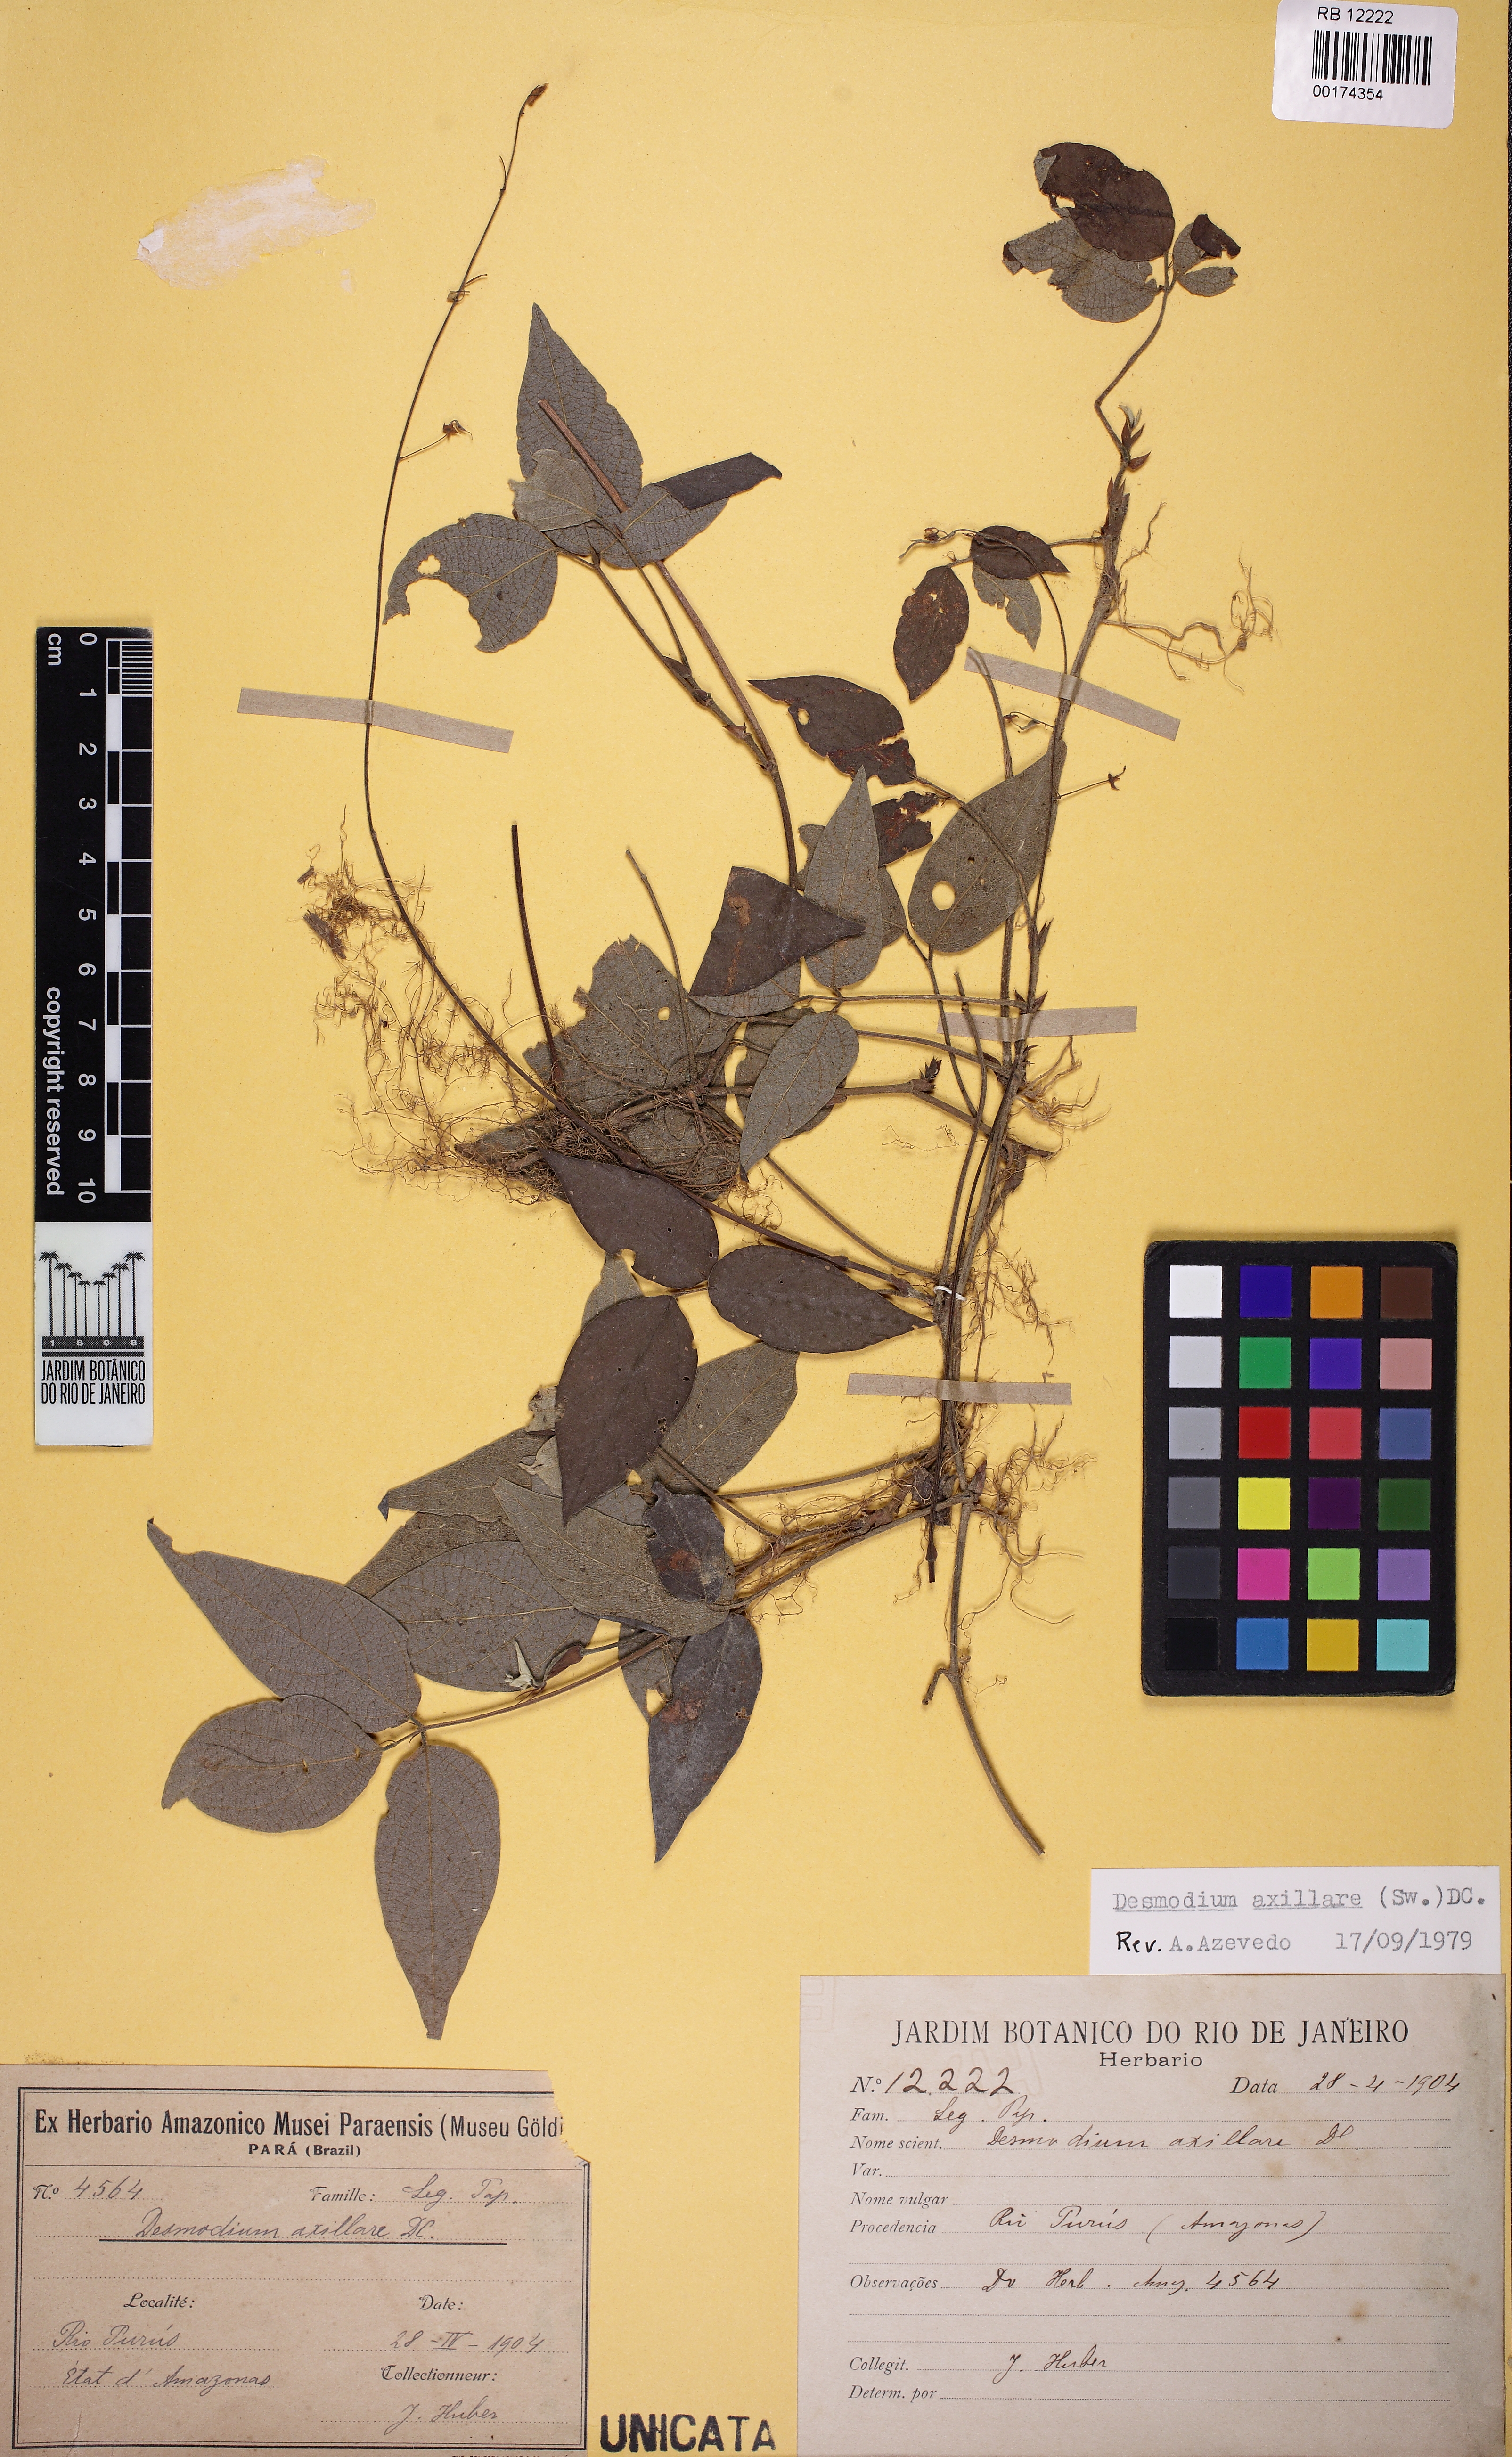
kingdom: Plantae
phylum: Tracheophyta
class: Magnoliopsida
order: Fabales
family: Fabaceae
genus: Desmodium
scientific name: Desmodium axillare
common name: Wire with
